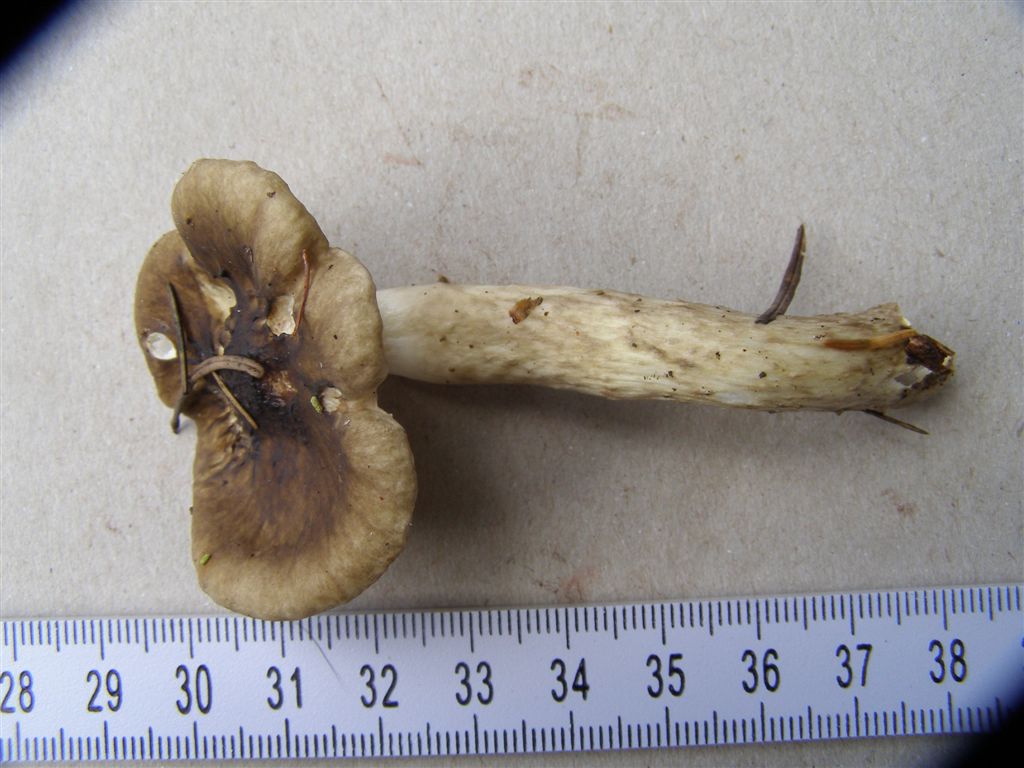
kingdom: Fungi
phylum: Basidiomycota
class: Agaricomycetes
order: Agaricales
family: Hygrophoraceae
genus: Hygrophorus
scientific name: Hygrophorus olivaceoalbus
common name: hvidbrun sneglehat
